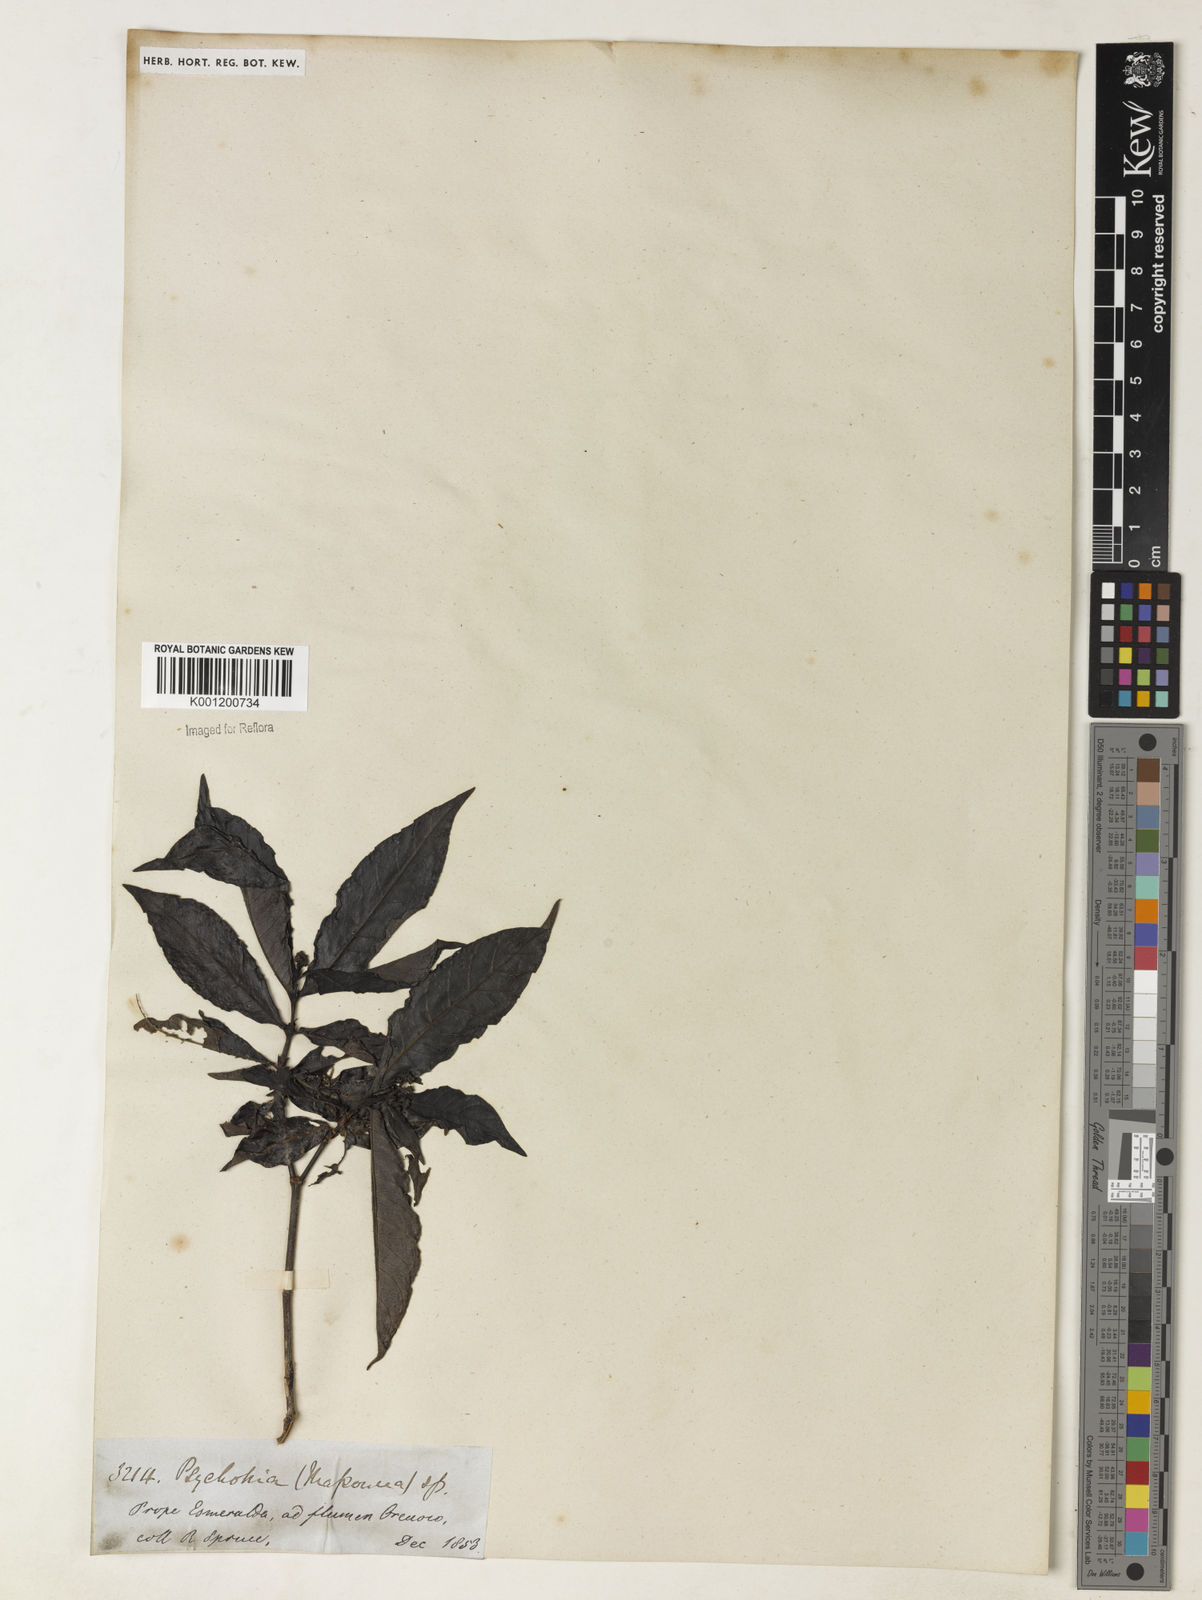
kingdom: Plantae
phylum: Tracheophyta
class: Magnoliopsida
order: Gentianales
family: Rubiaceae
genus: Psychotria
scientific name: Psychotria
